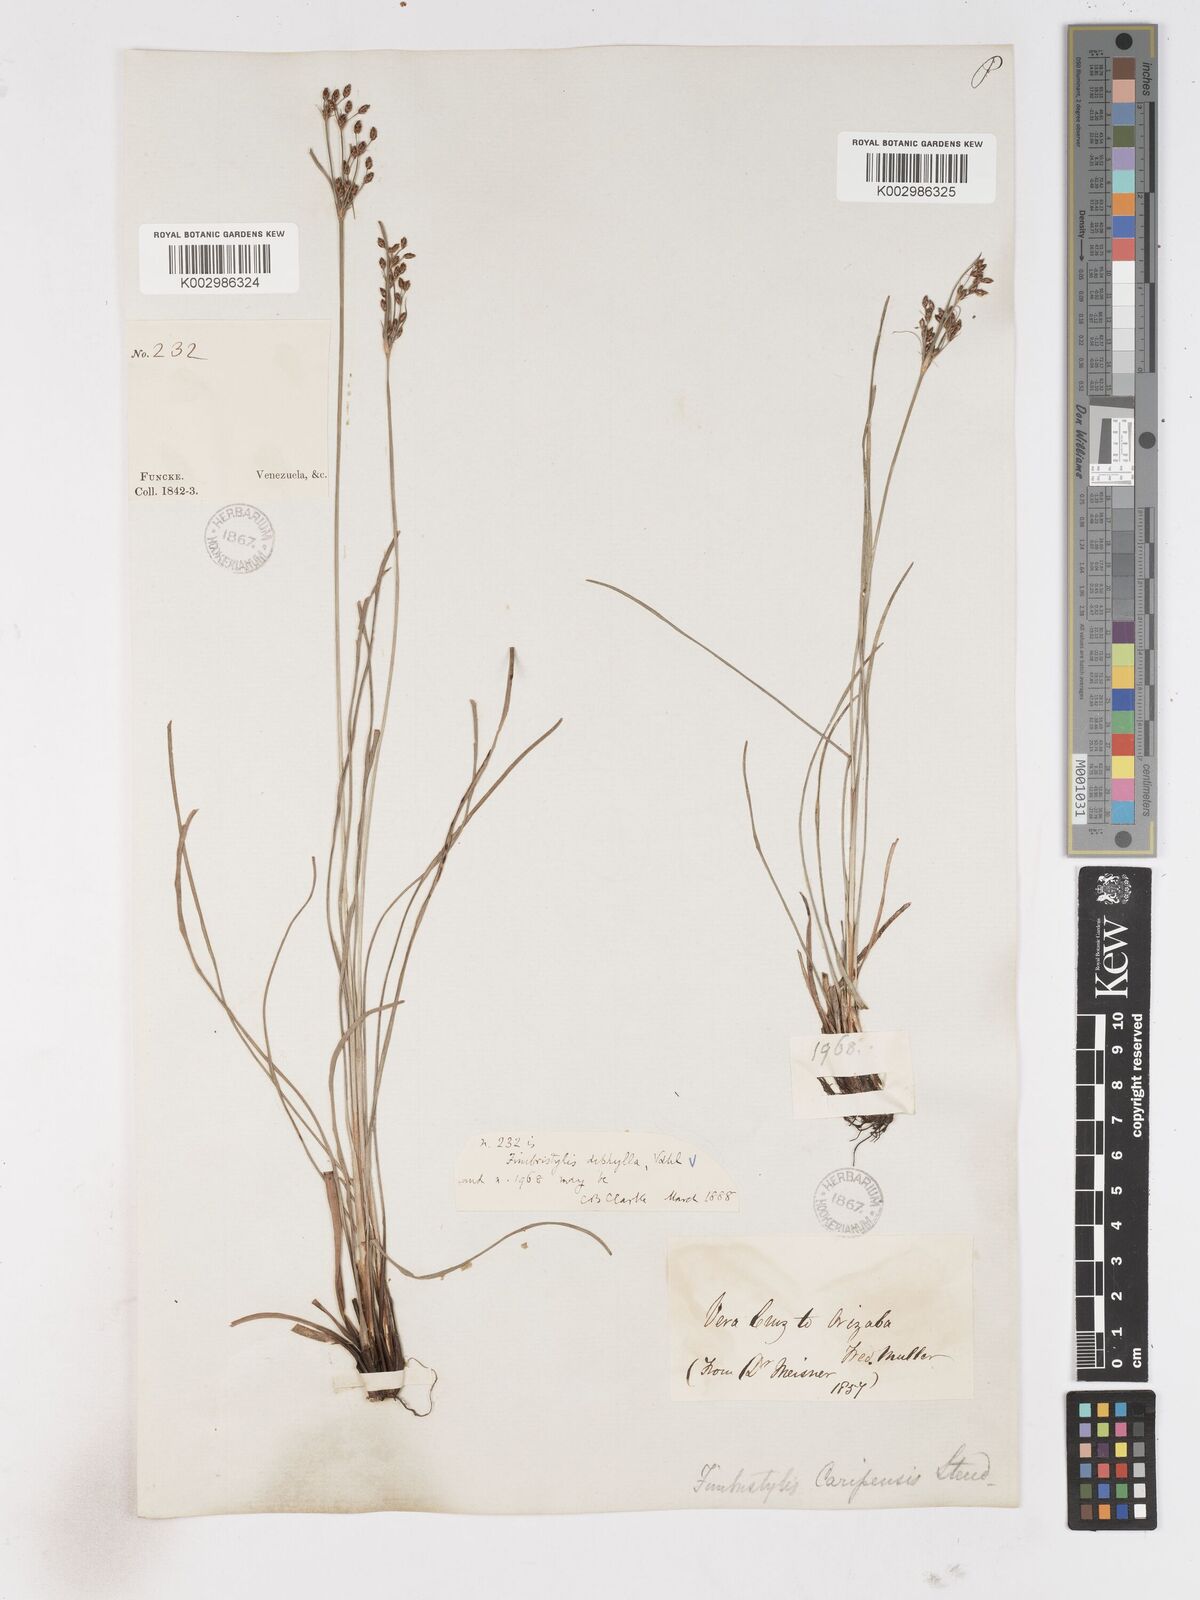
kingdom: Plantae
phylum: Tracheophyta
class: Liliopsida
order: Poales
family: Cyperaceae
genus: Fimbristylis
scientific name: Fimbristylis dichotoma
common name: Forked fimbry
